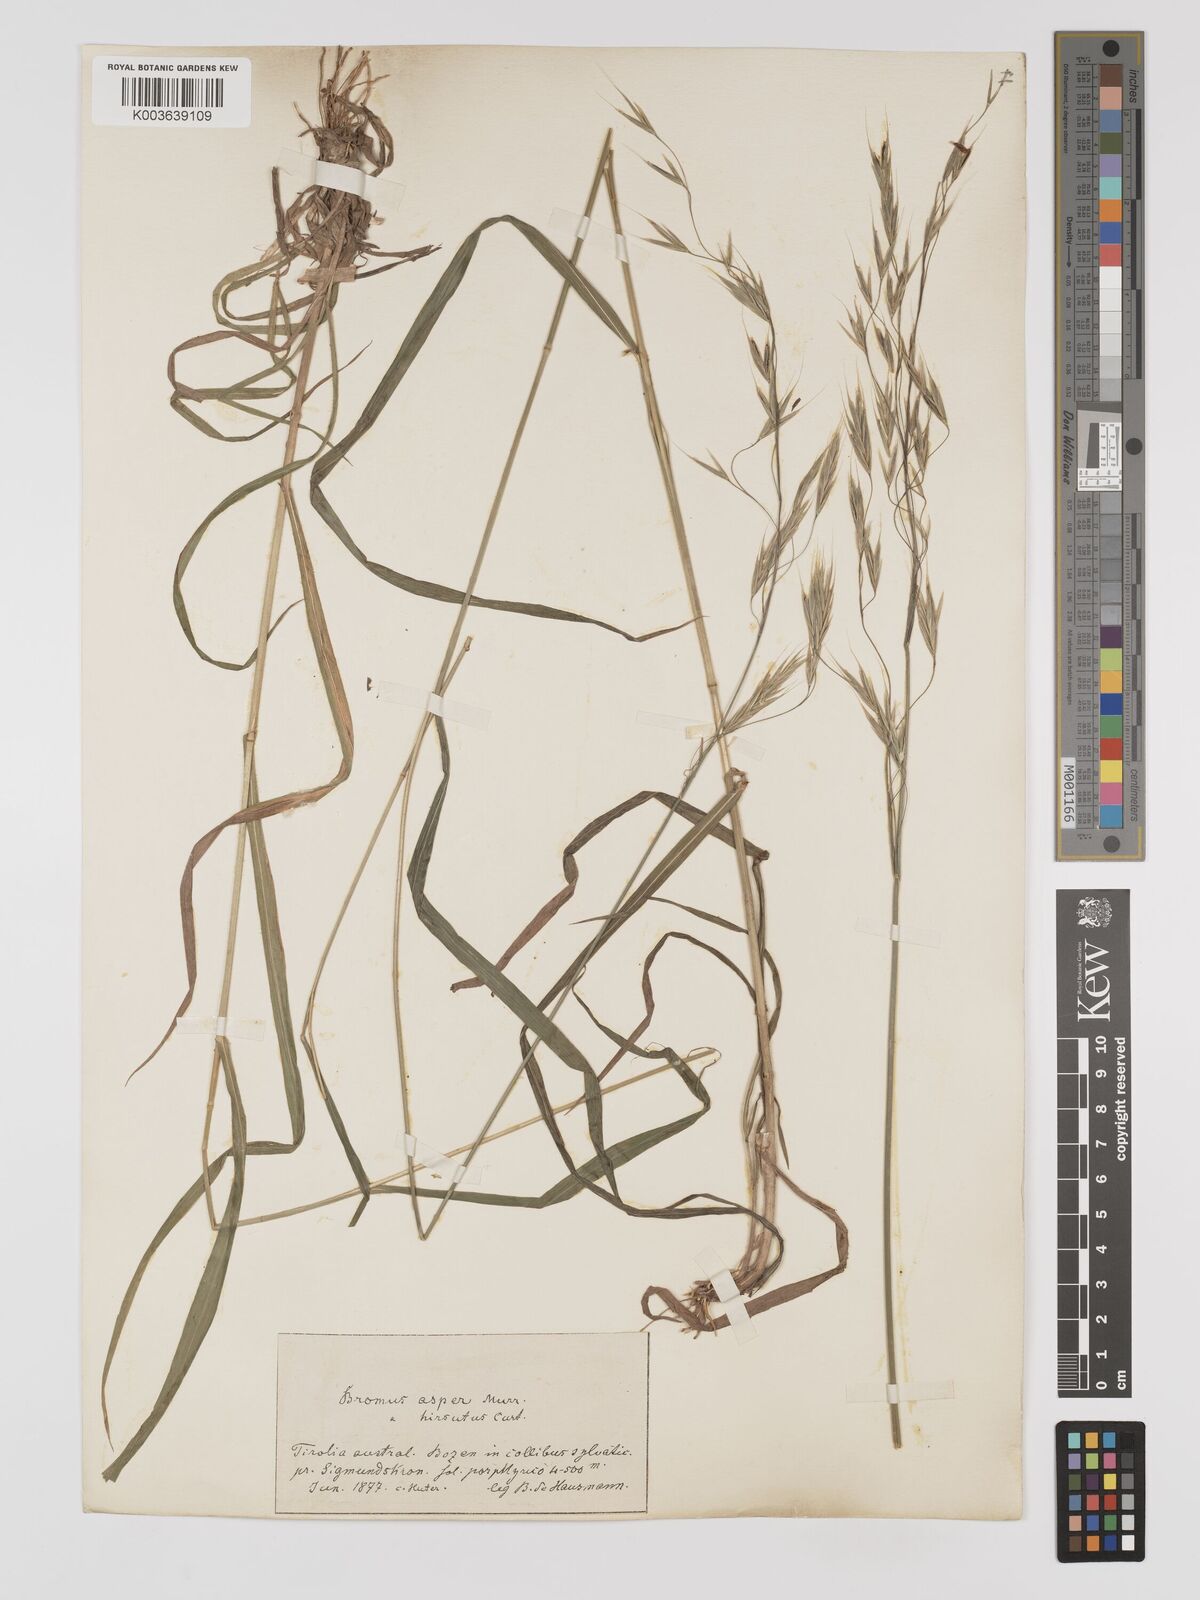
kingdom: Plantae
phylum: Tracheophyta
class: Liliopsida
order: Poales
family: Poaceae
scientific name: Poaceae
